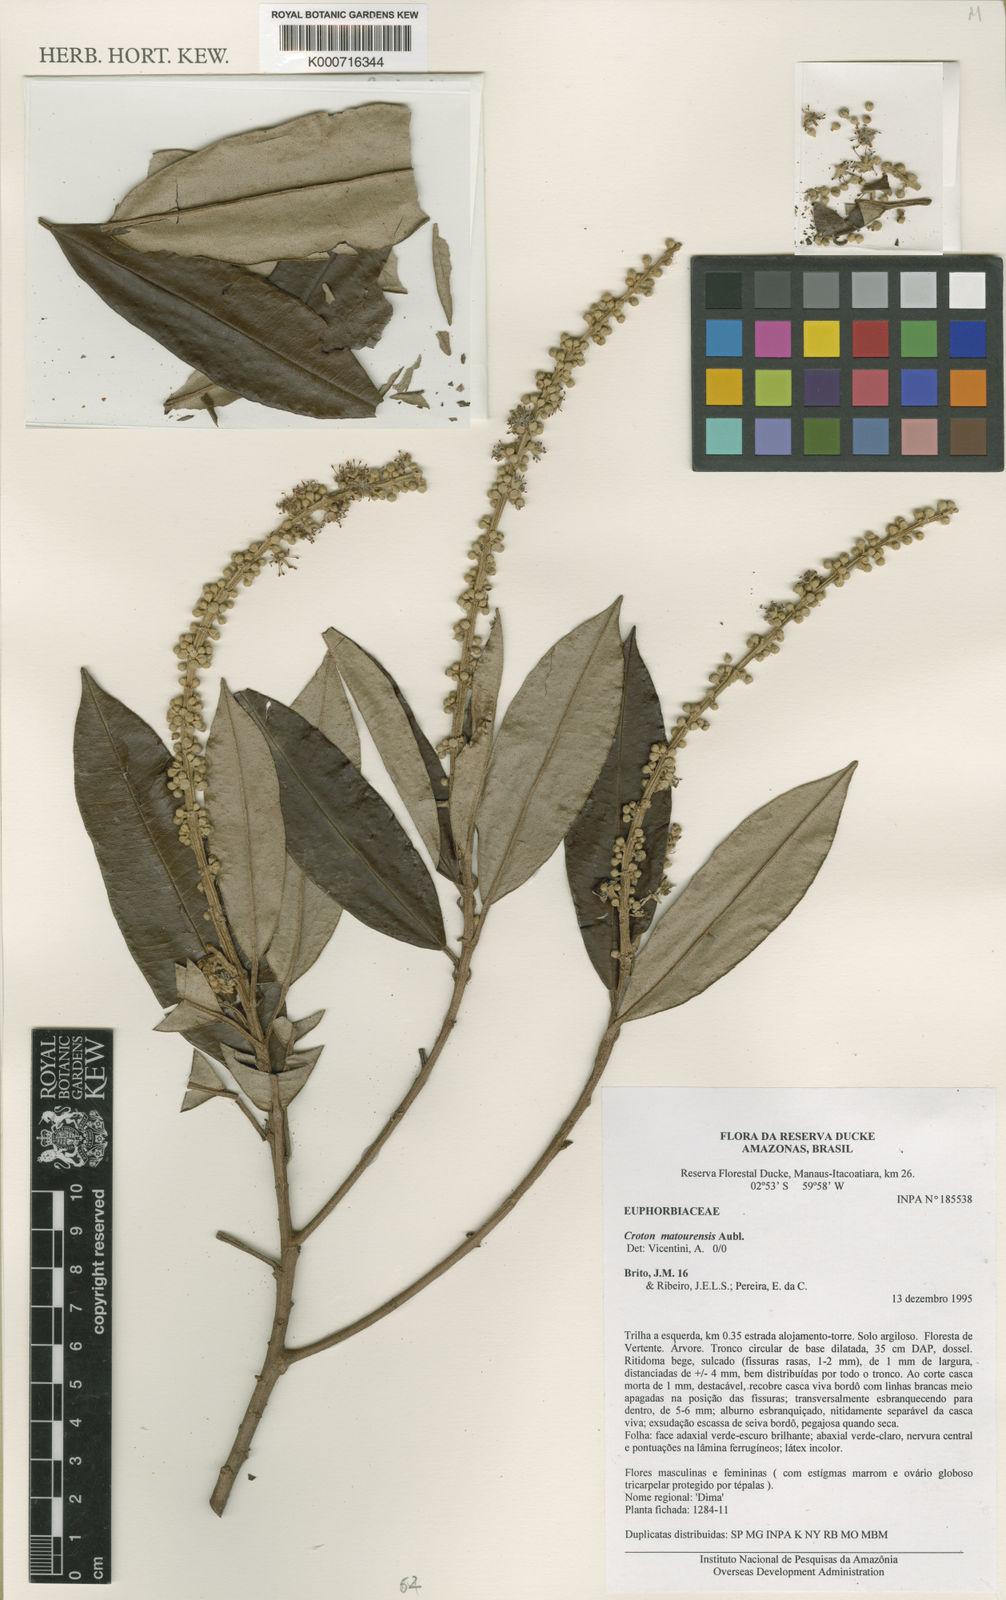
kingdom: Plantae
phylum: Tracheophyta
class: Magnoliopsida
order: Malpighiales
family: Euphorbiaceae
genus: Croton
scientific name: Croton matourensis
